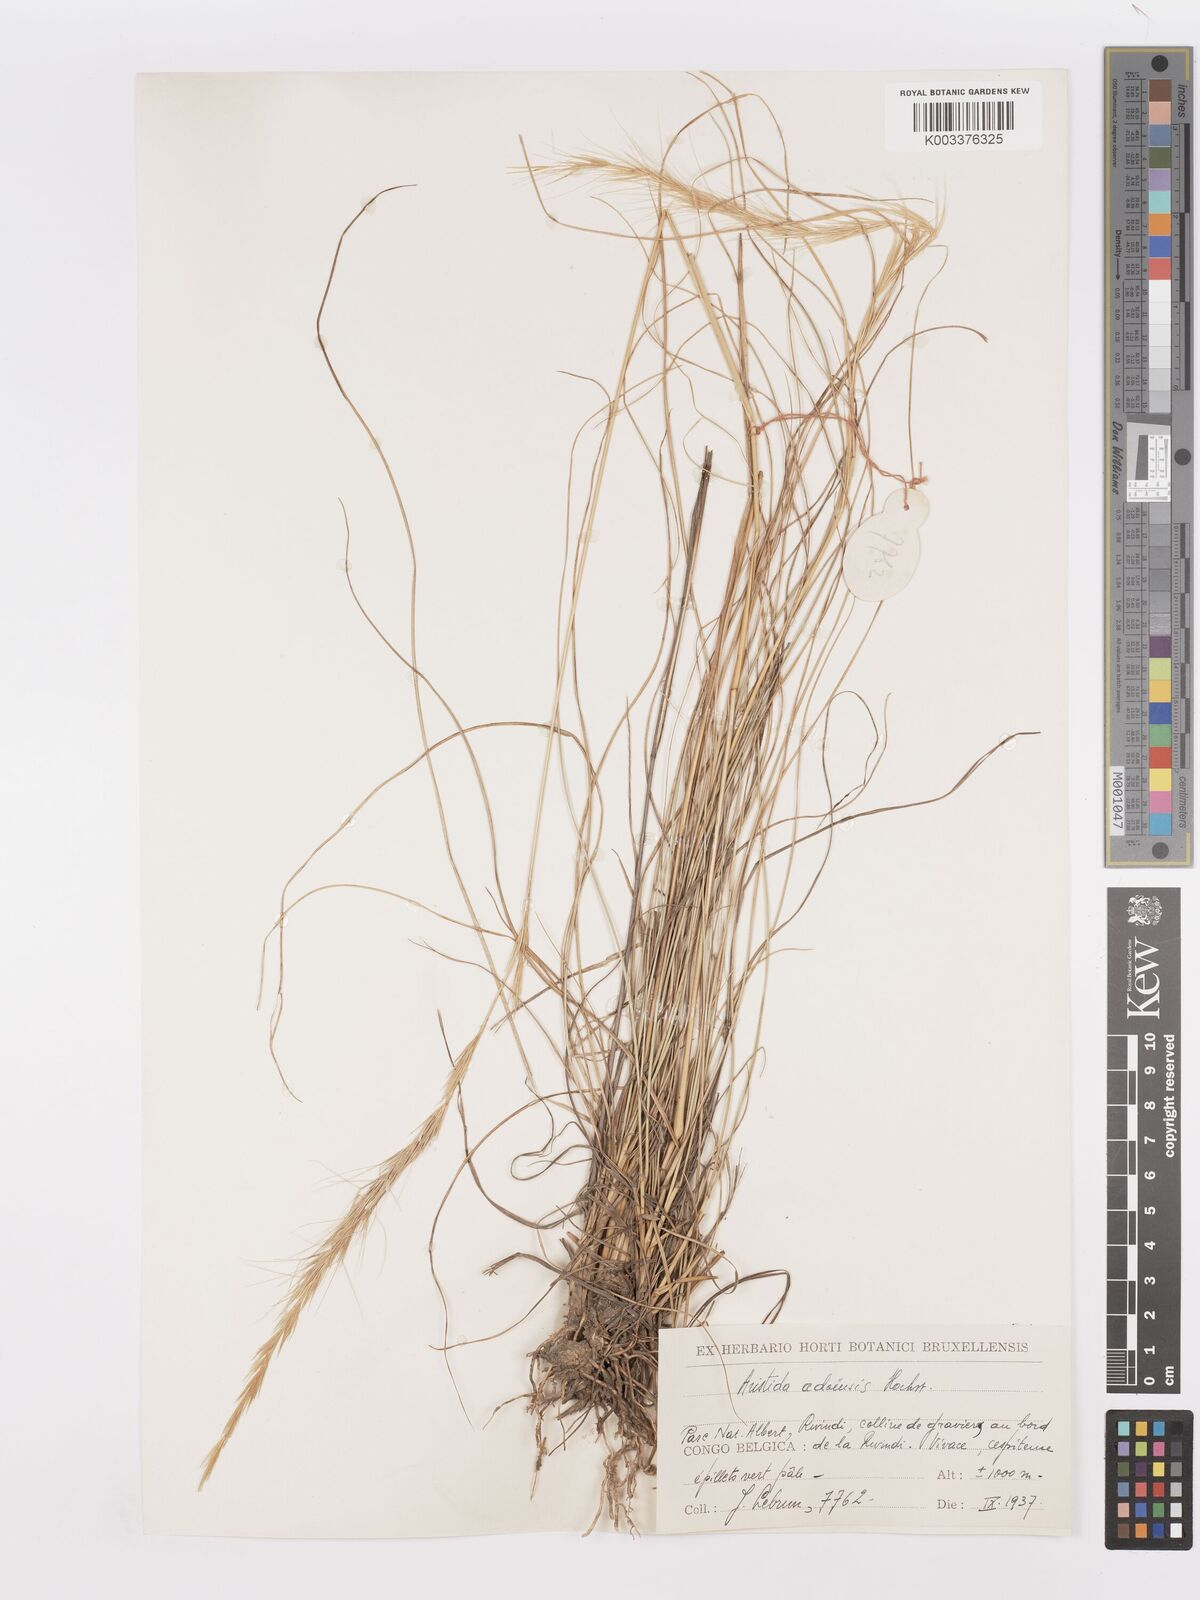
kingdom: Plantae
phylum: Tracheophyta
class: Liliopsida
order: Poales
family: Poaceae
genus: Aristida
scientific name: Aristida adoensis
